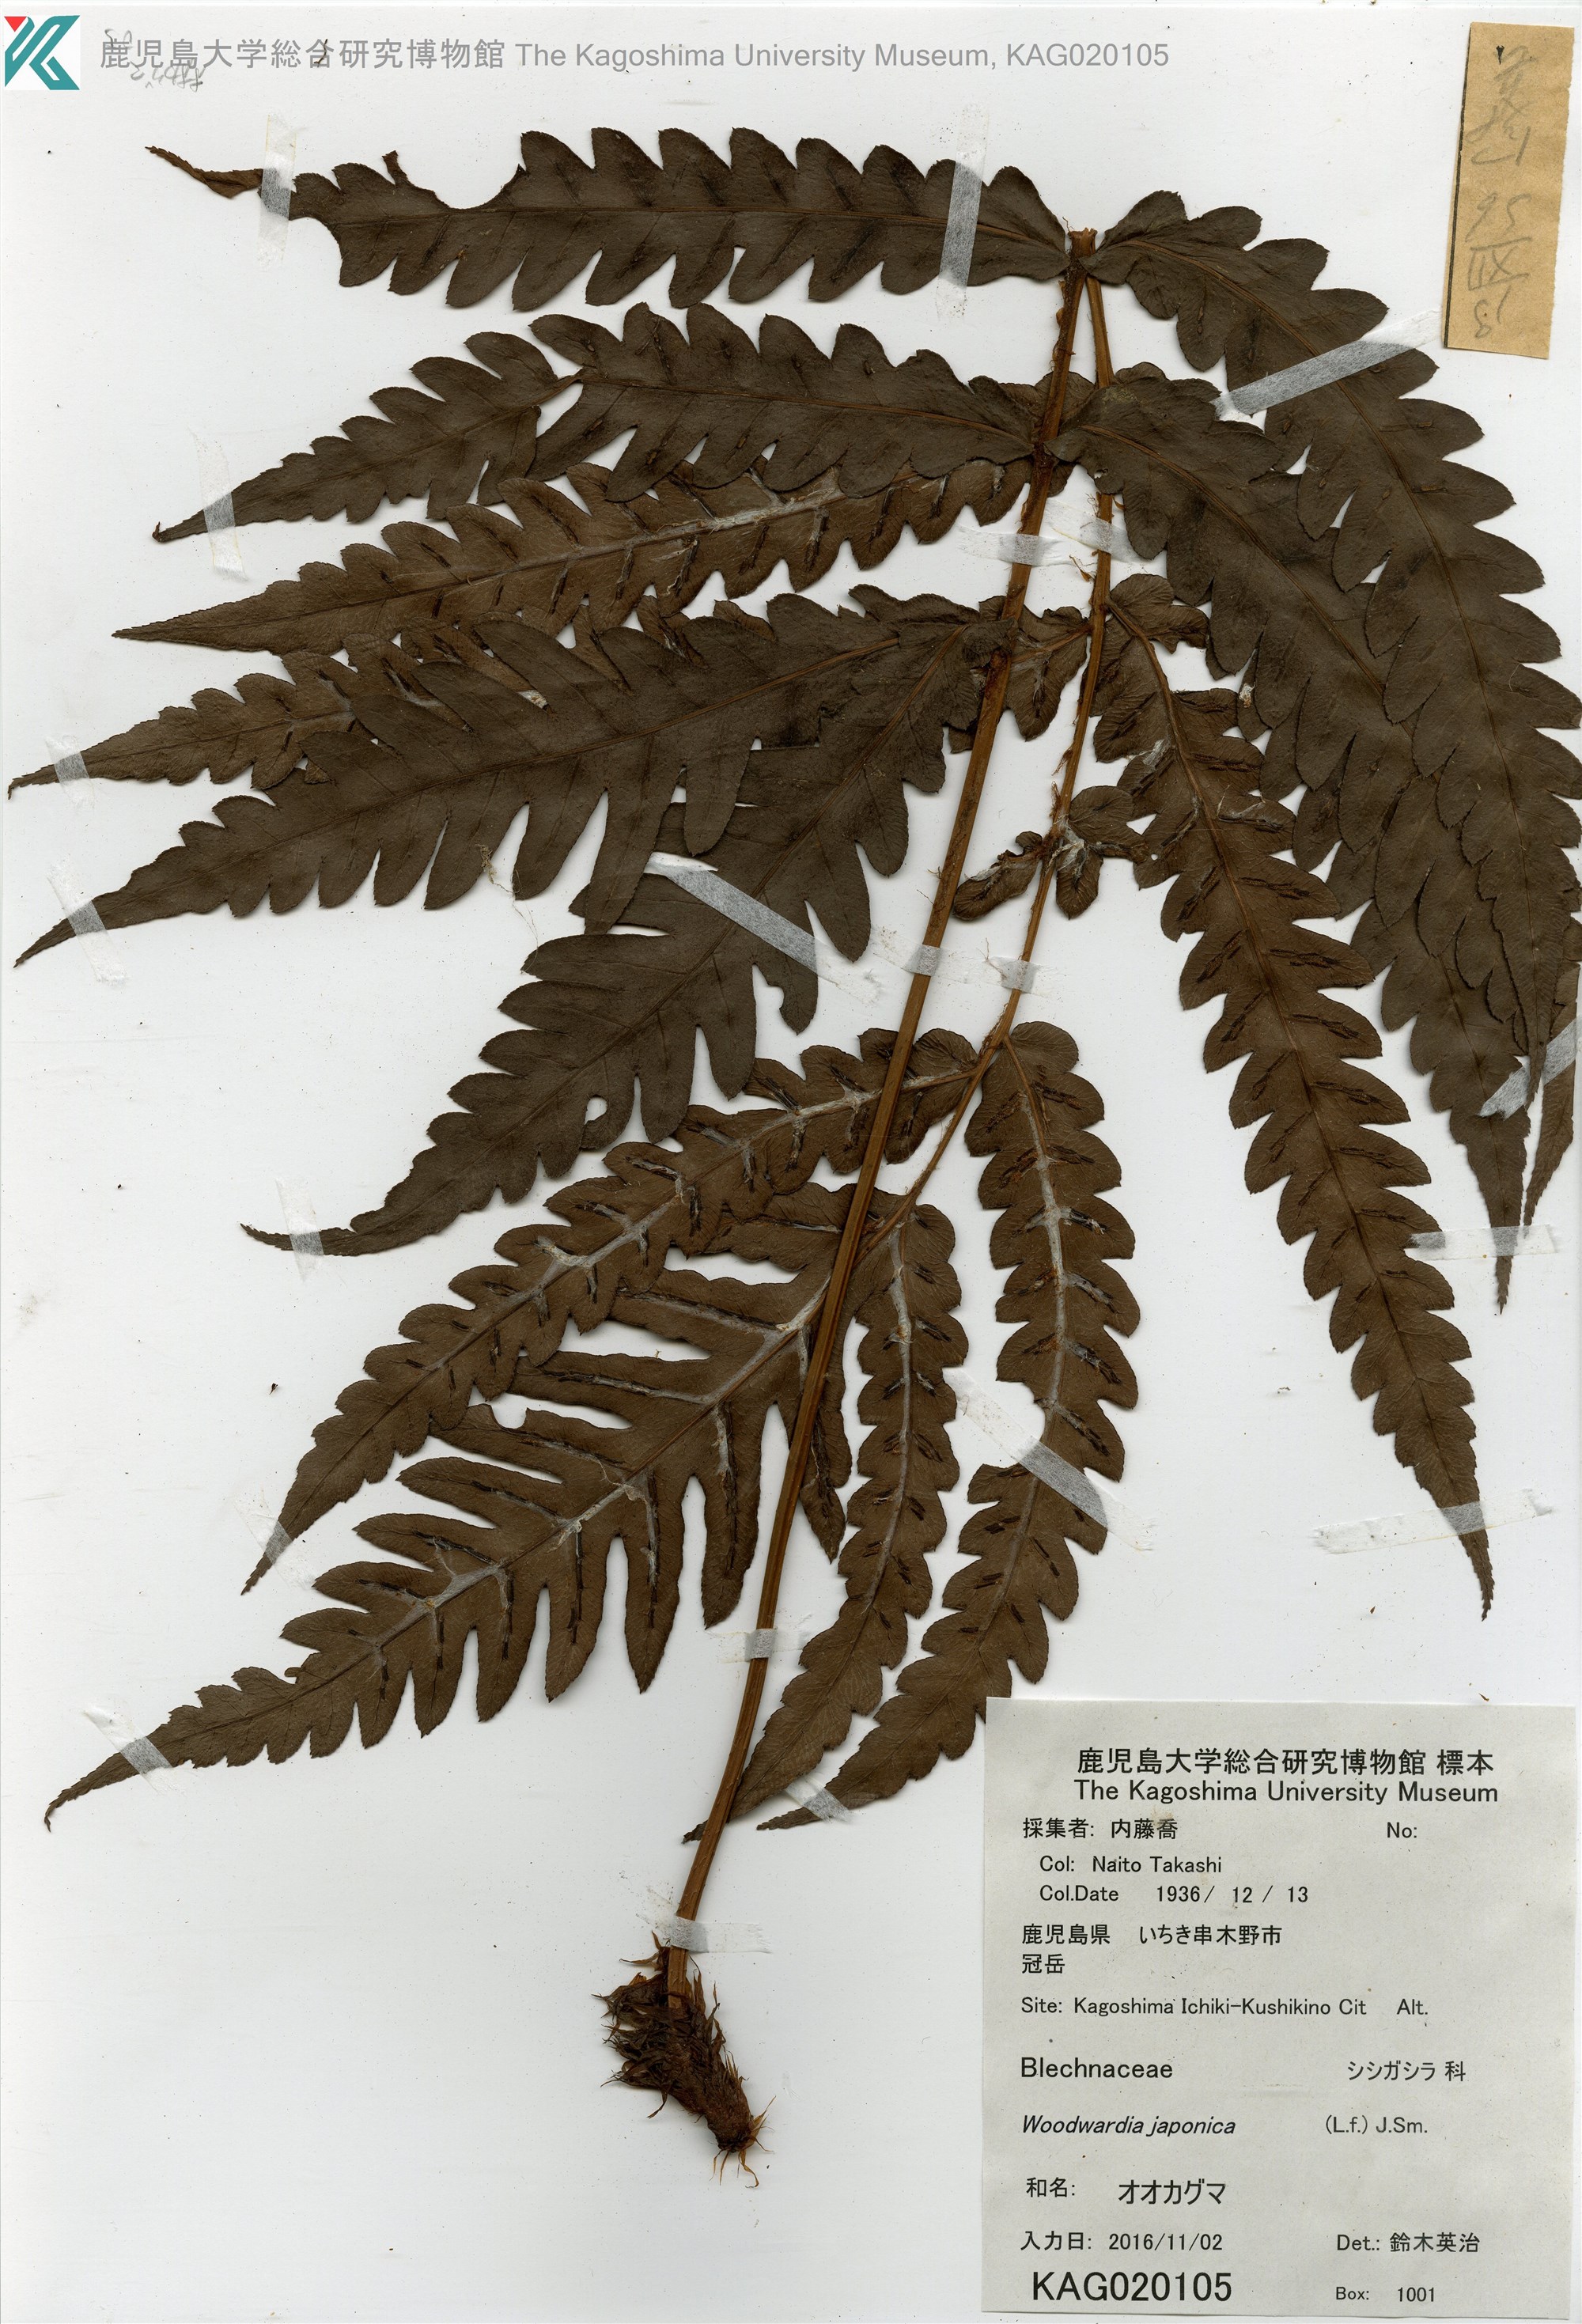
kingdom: Plantae
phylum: Tracheophyta
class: Polypodiopsida
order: Polypodiales
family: Blechnaceae
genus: Woodwardia
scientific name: Woodwardia japonica
